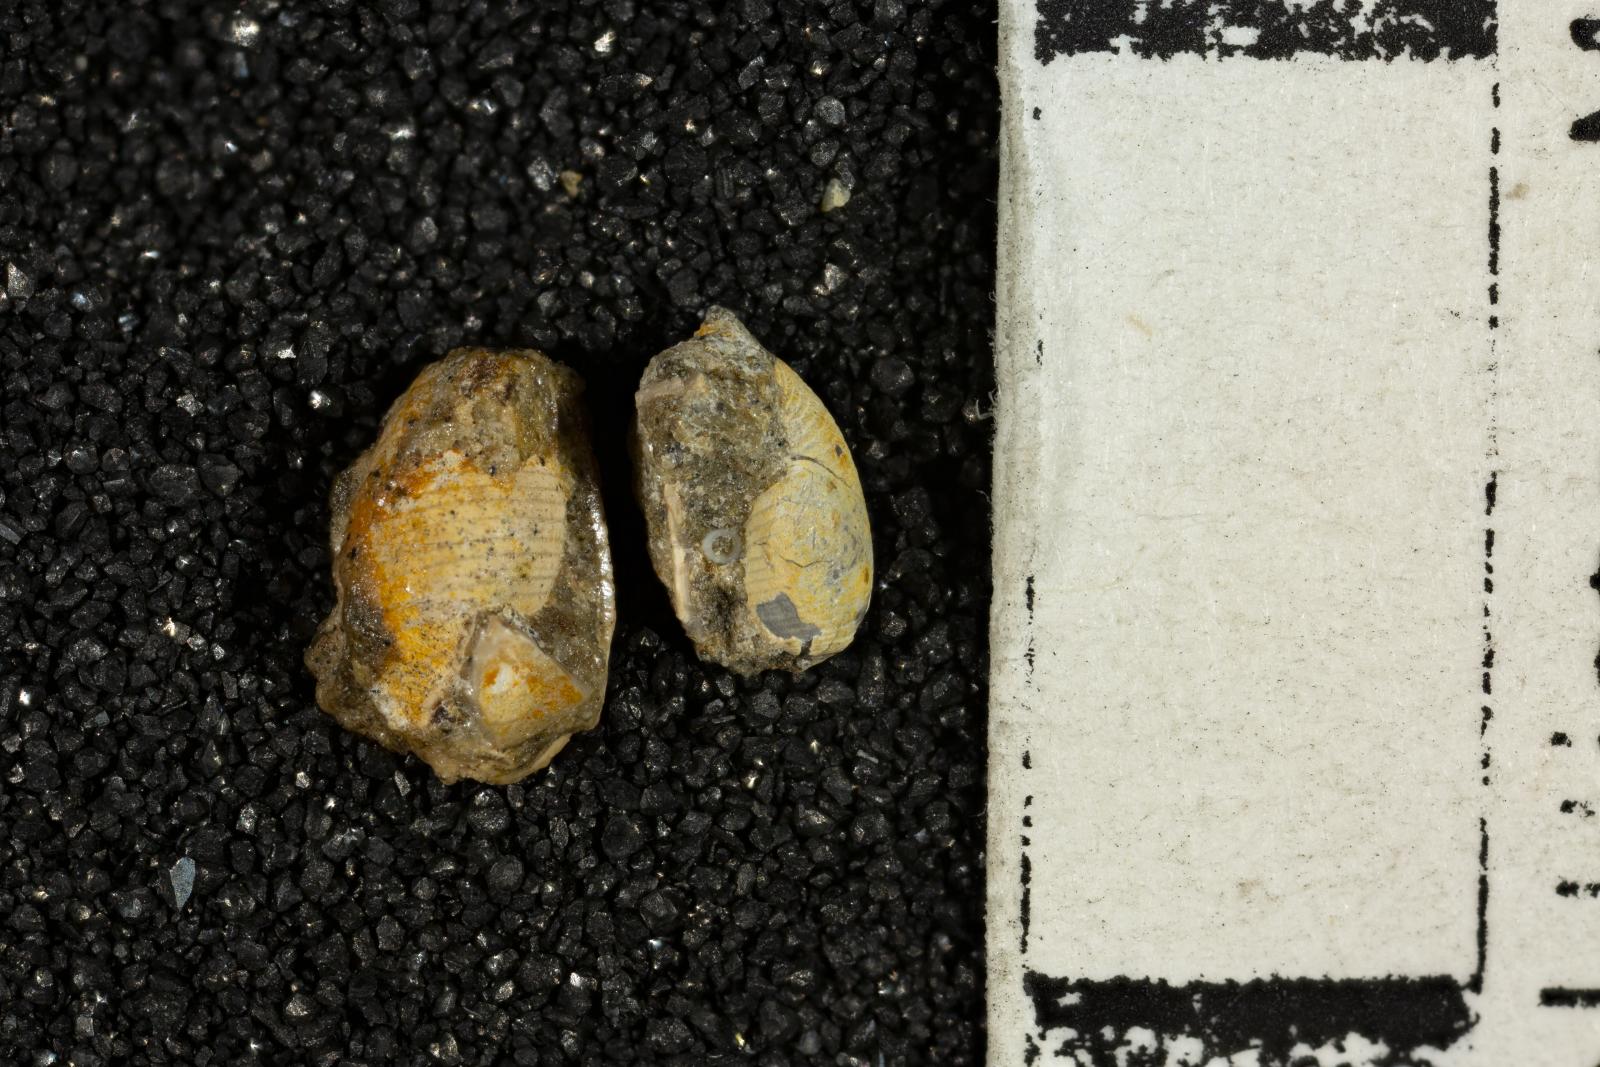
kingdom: Animalia
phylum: Mollusca
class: Gastropoda
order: Cephalaspidea
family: Scaphandridae
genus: Ellipsoscapha
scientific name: Ellipsoscapha Bullina nortonensis
